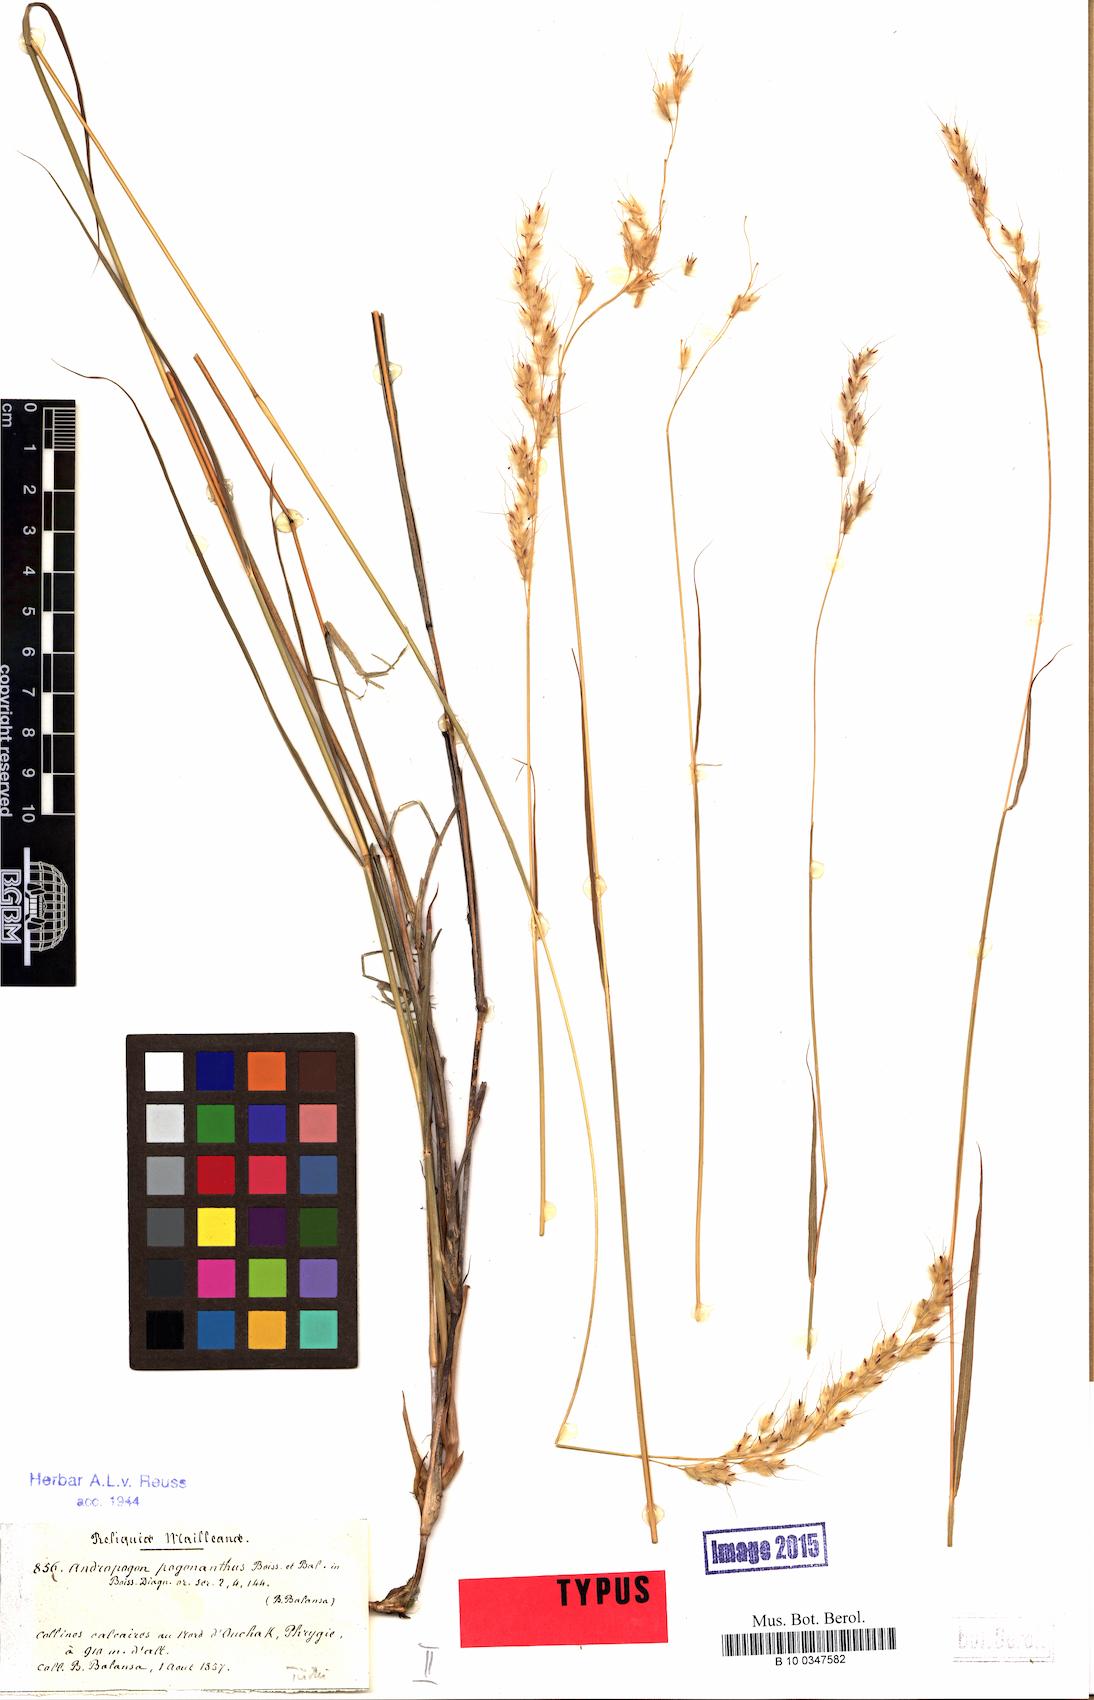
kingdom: Plantae
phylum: Tracheophyta
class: Liliopsida
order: Poales
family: Poaceae
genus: Spodiopogon
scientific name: Spodiopogon pogonanthus
